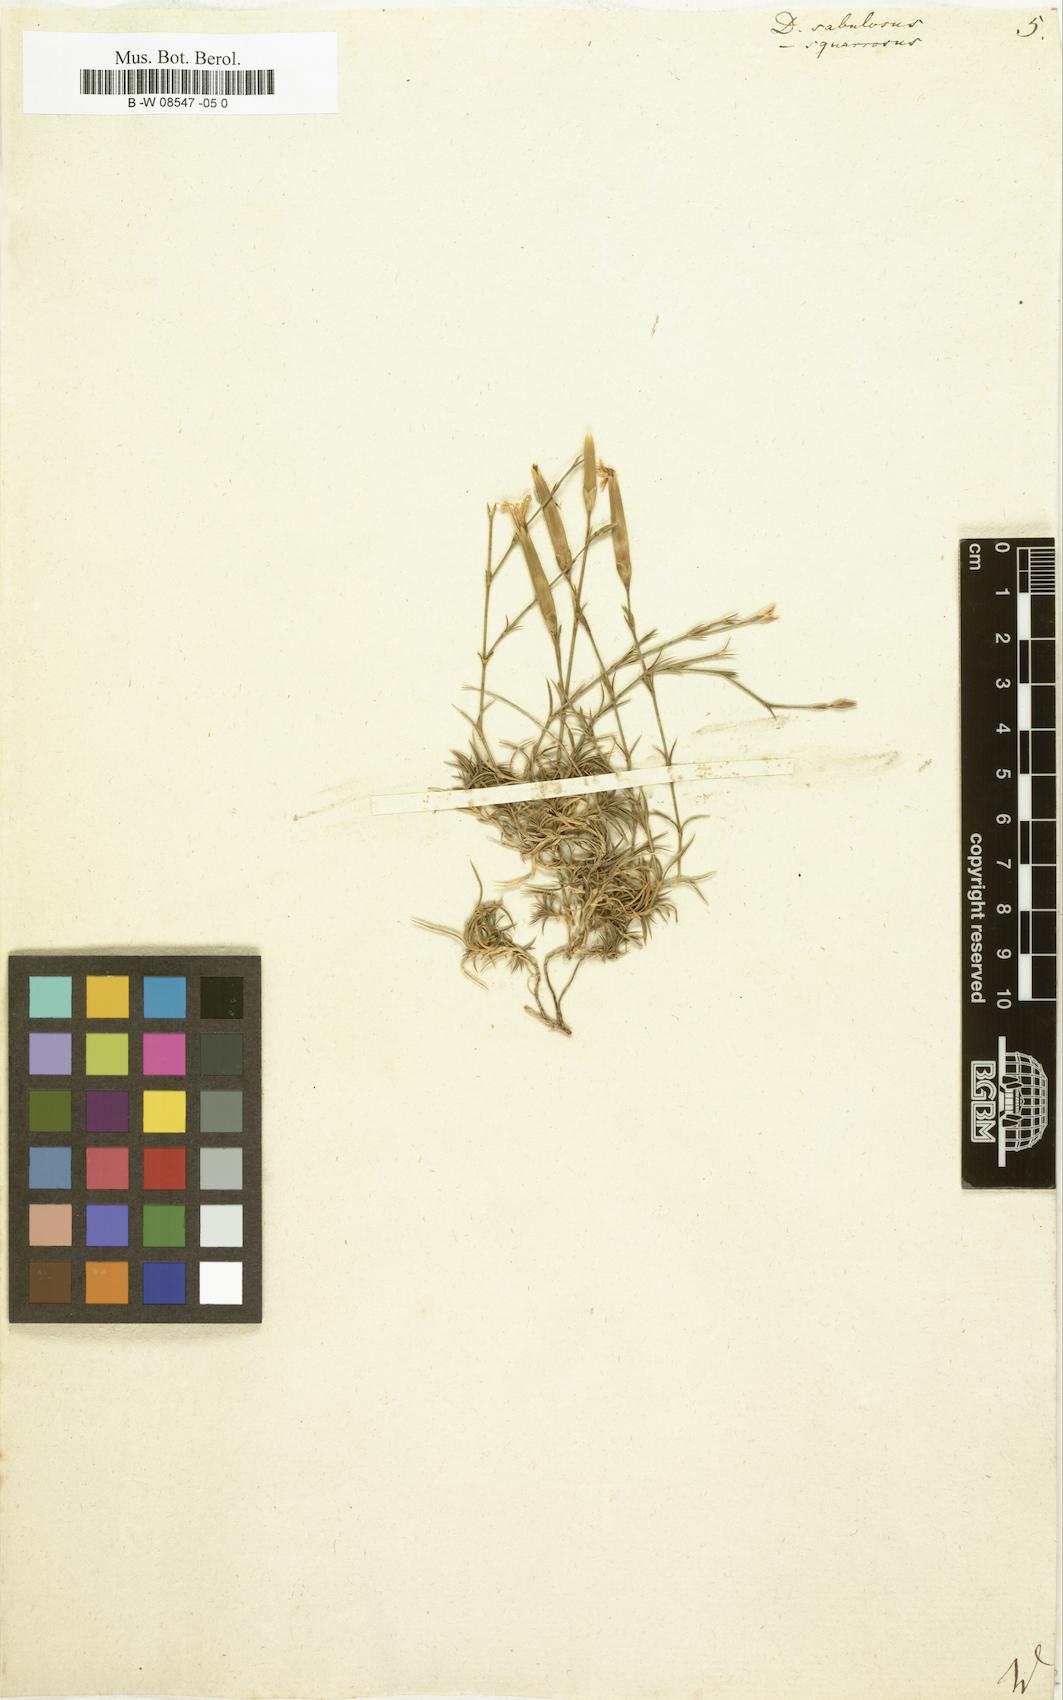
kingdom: Plantae
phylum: Tracheophyta
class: Magnoliopsida
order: Caryophyllales
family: Caryophyllaceae
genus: Dianthus
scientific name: Dianthus squarrosus
